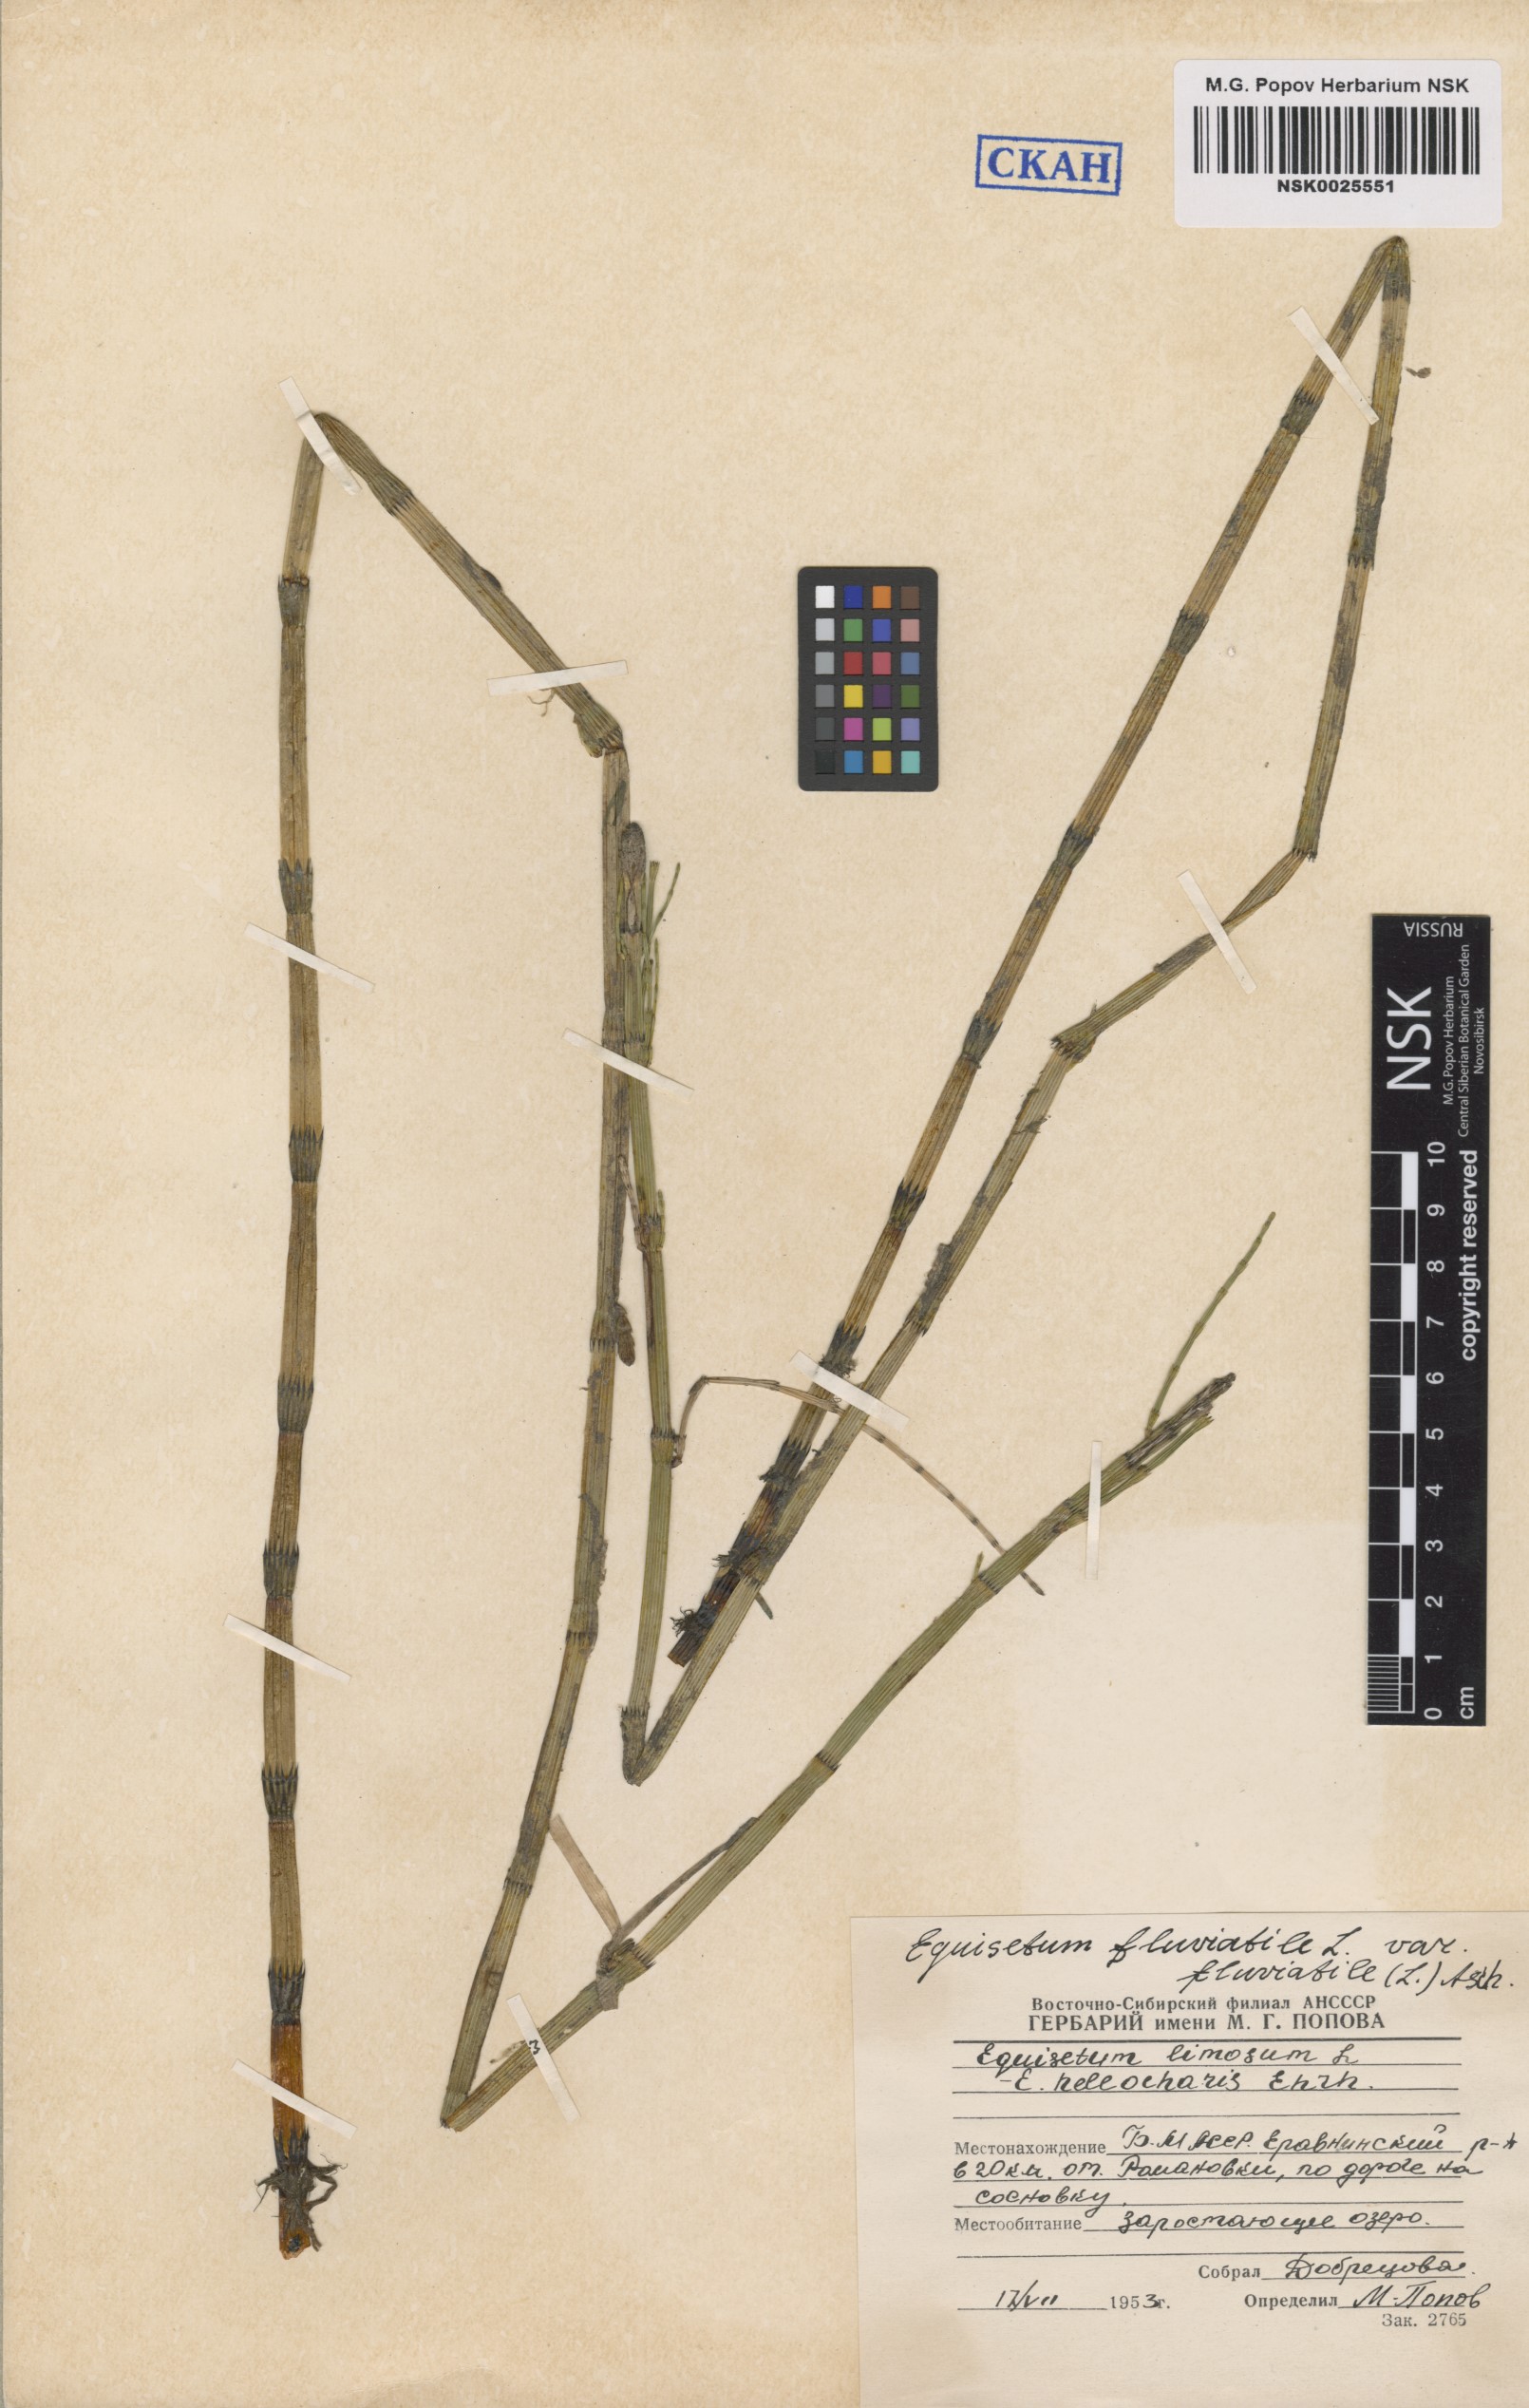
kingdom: Plantae
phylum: Tracheophyta
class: Polypodiopsida
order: Equisetales
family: Equisetaceae
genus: Equisetum
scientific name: Equisetum fluviatile
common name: Water horsetail
